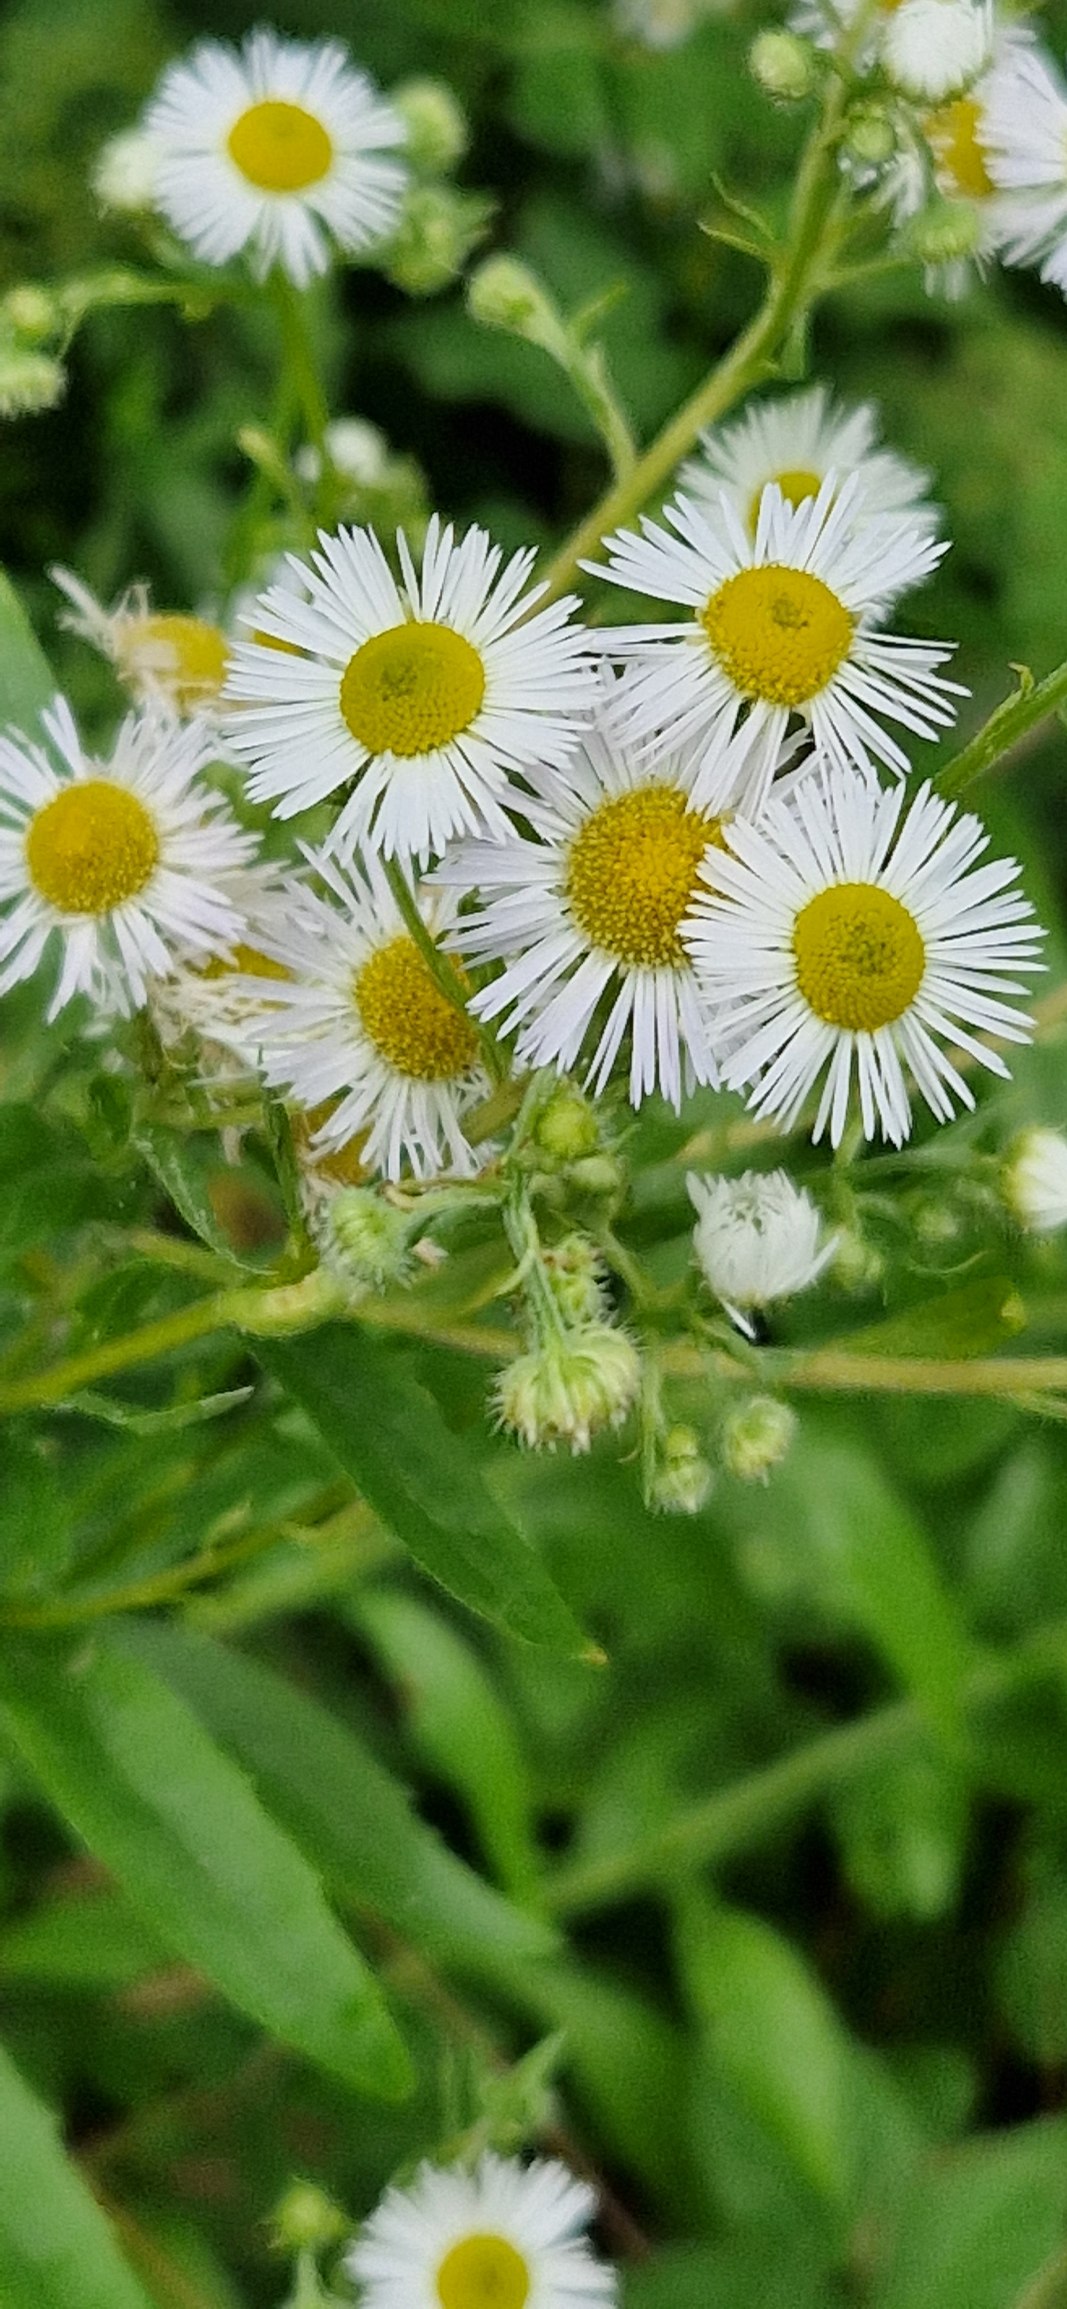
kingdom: Plantae
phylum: Tracheophyta
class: Magnoliopsida
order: Asterales
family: Asteraceae
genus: Erigeron
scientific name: Erigeron annuus
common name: Smalstråle
